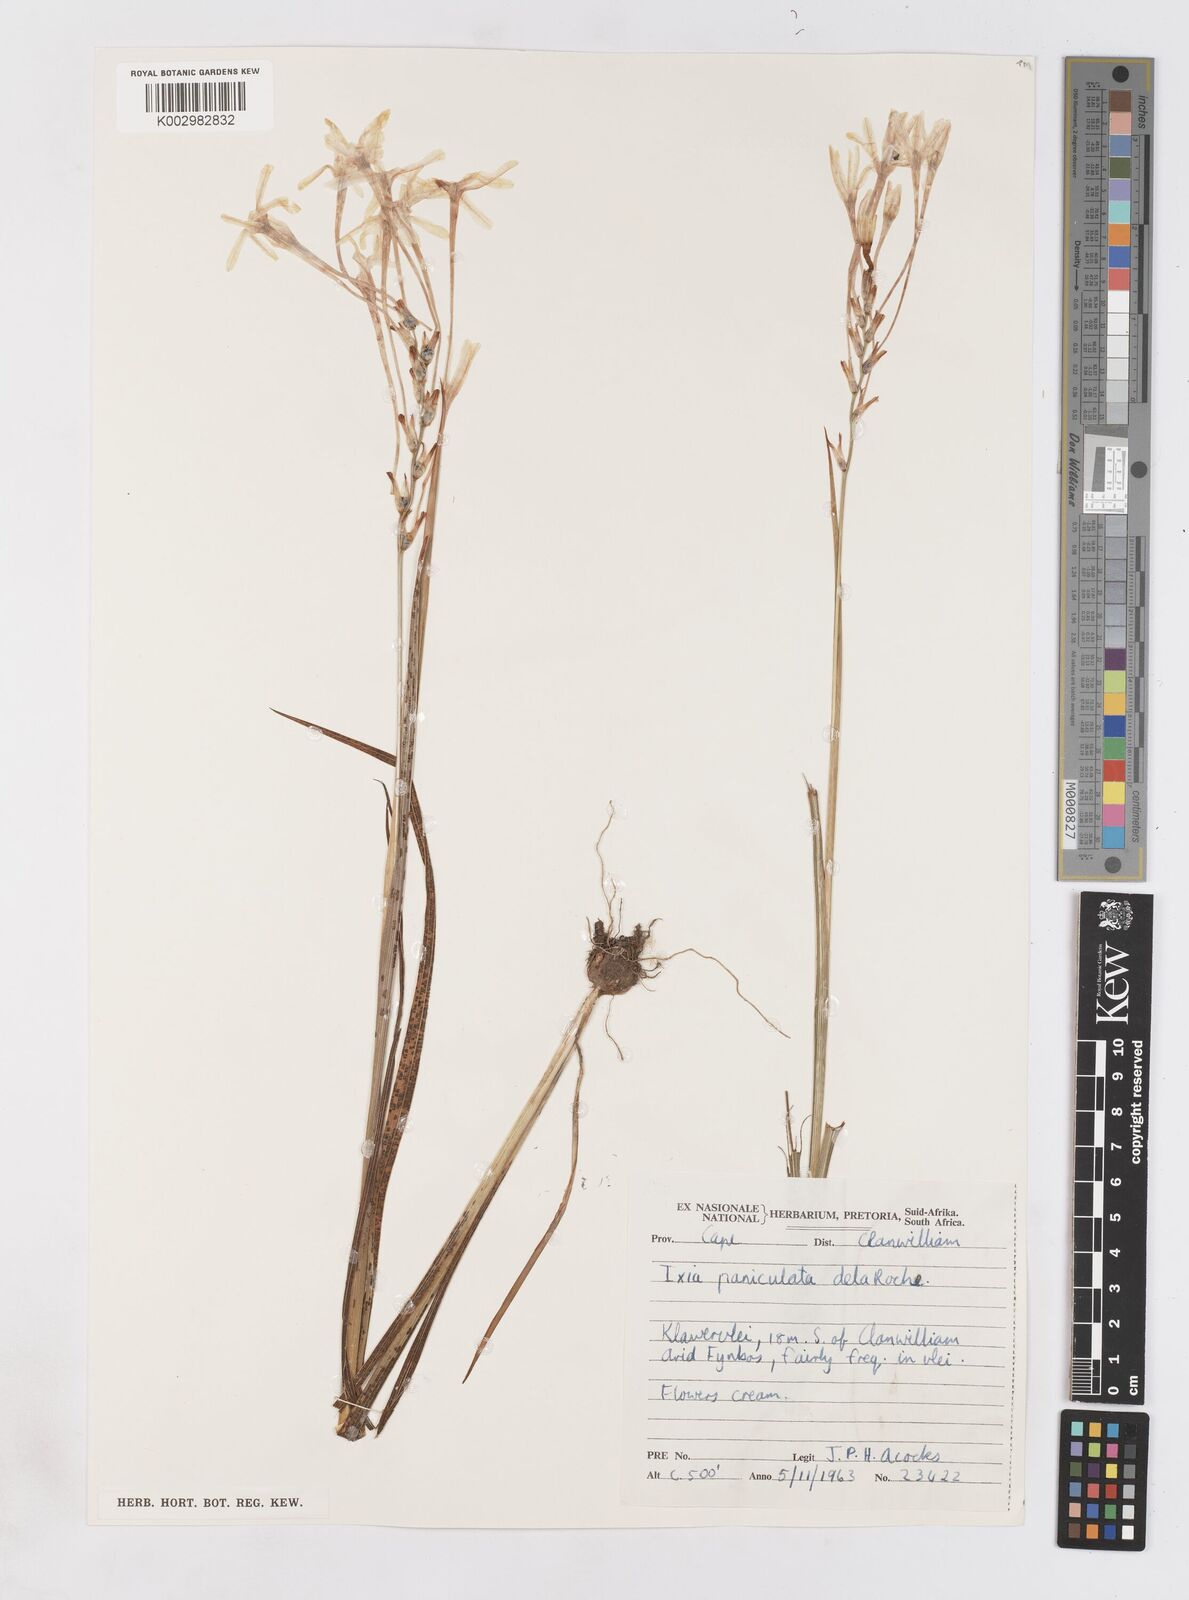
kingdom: Plantae
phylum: Tracheophyta
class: Liliopsida
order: Asparagales
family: Iridaceae
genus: Ixia
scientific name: Ixia paniculata
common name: Tubular corn-lily
